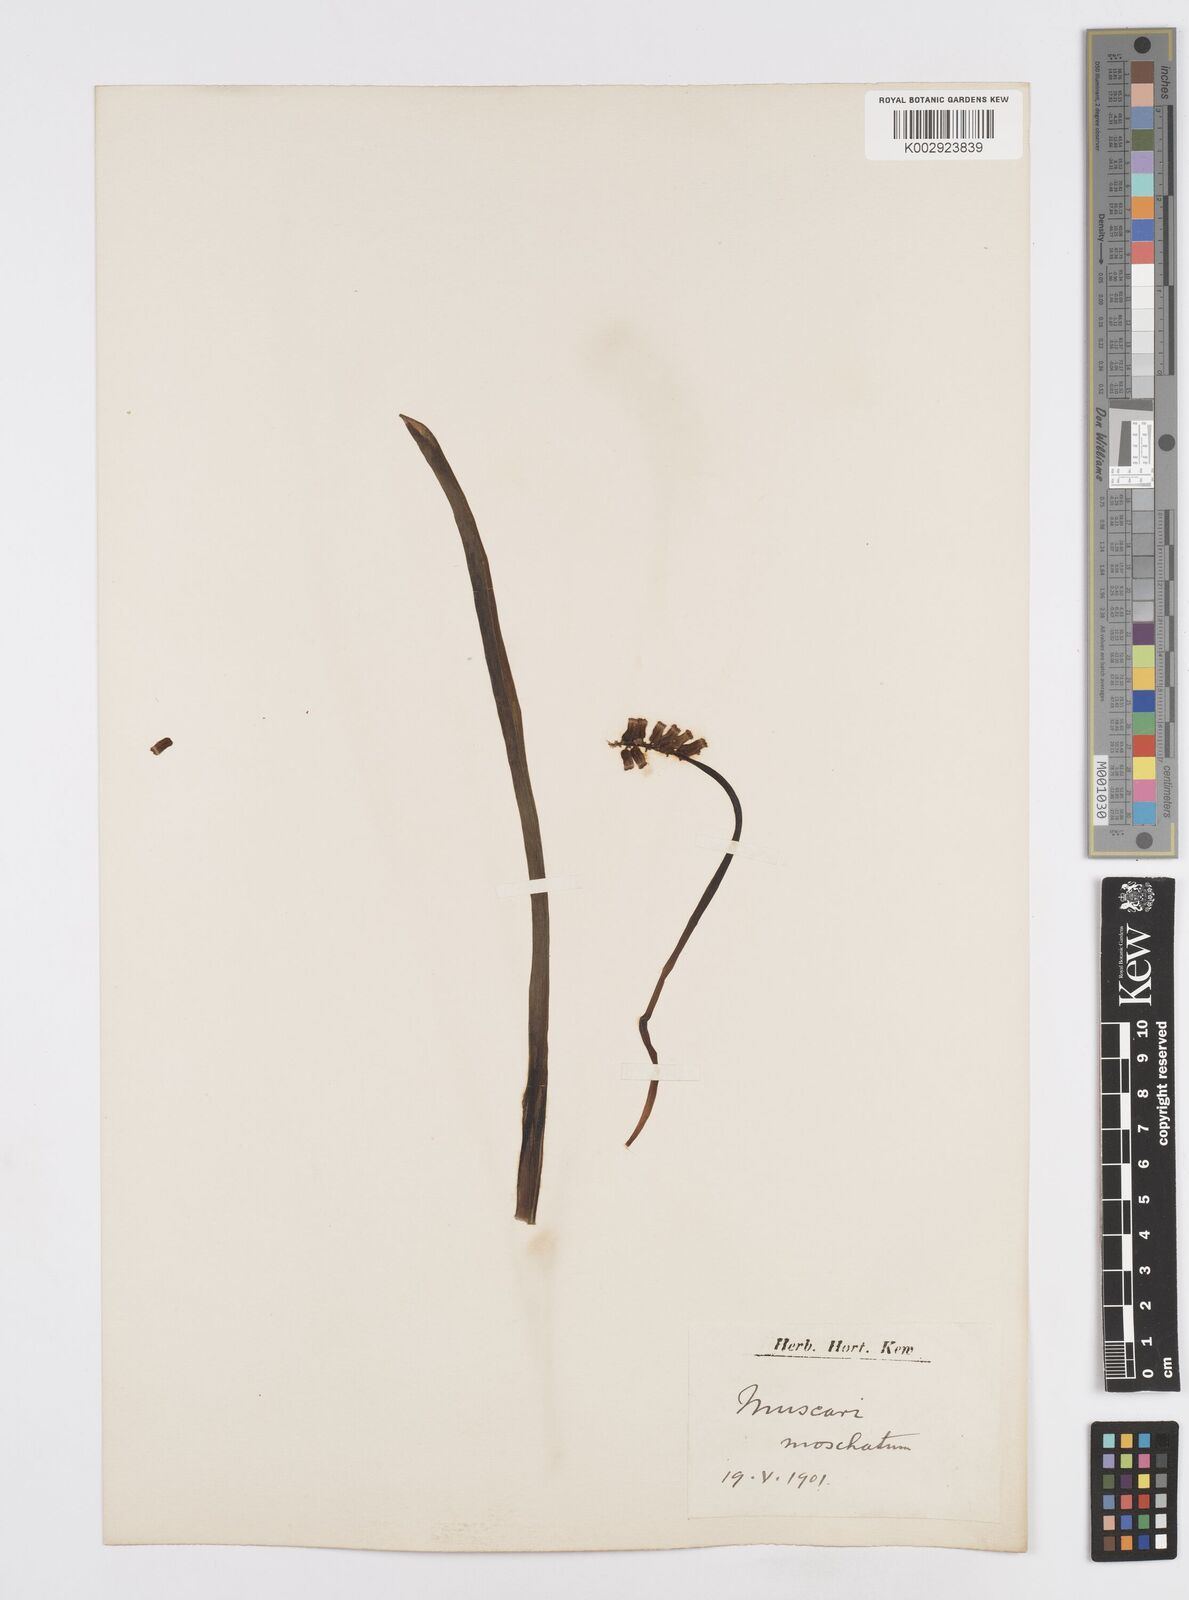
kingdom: Plantae
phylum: Tracheophyta
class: Liliopsida
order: Asparagales
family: Asparagaceae
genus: Muscarimia
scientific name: Muscarimia muscari
